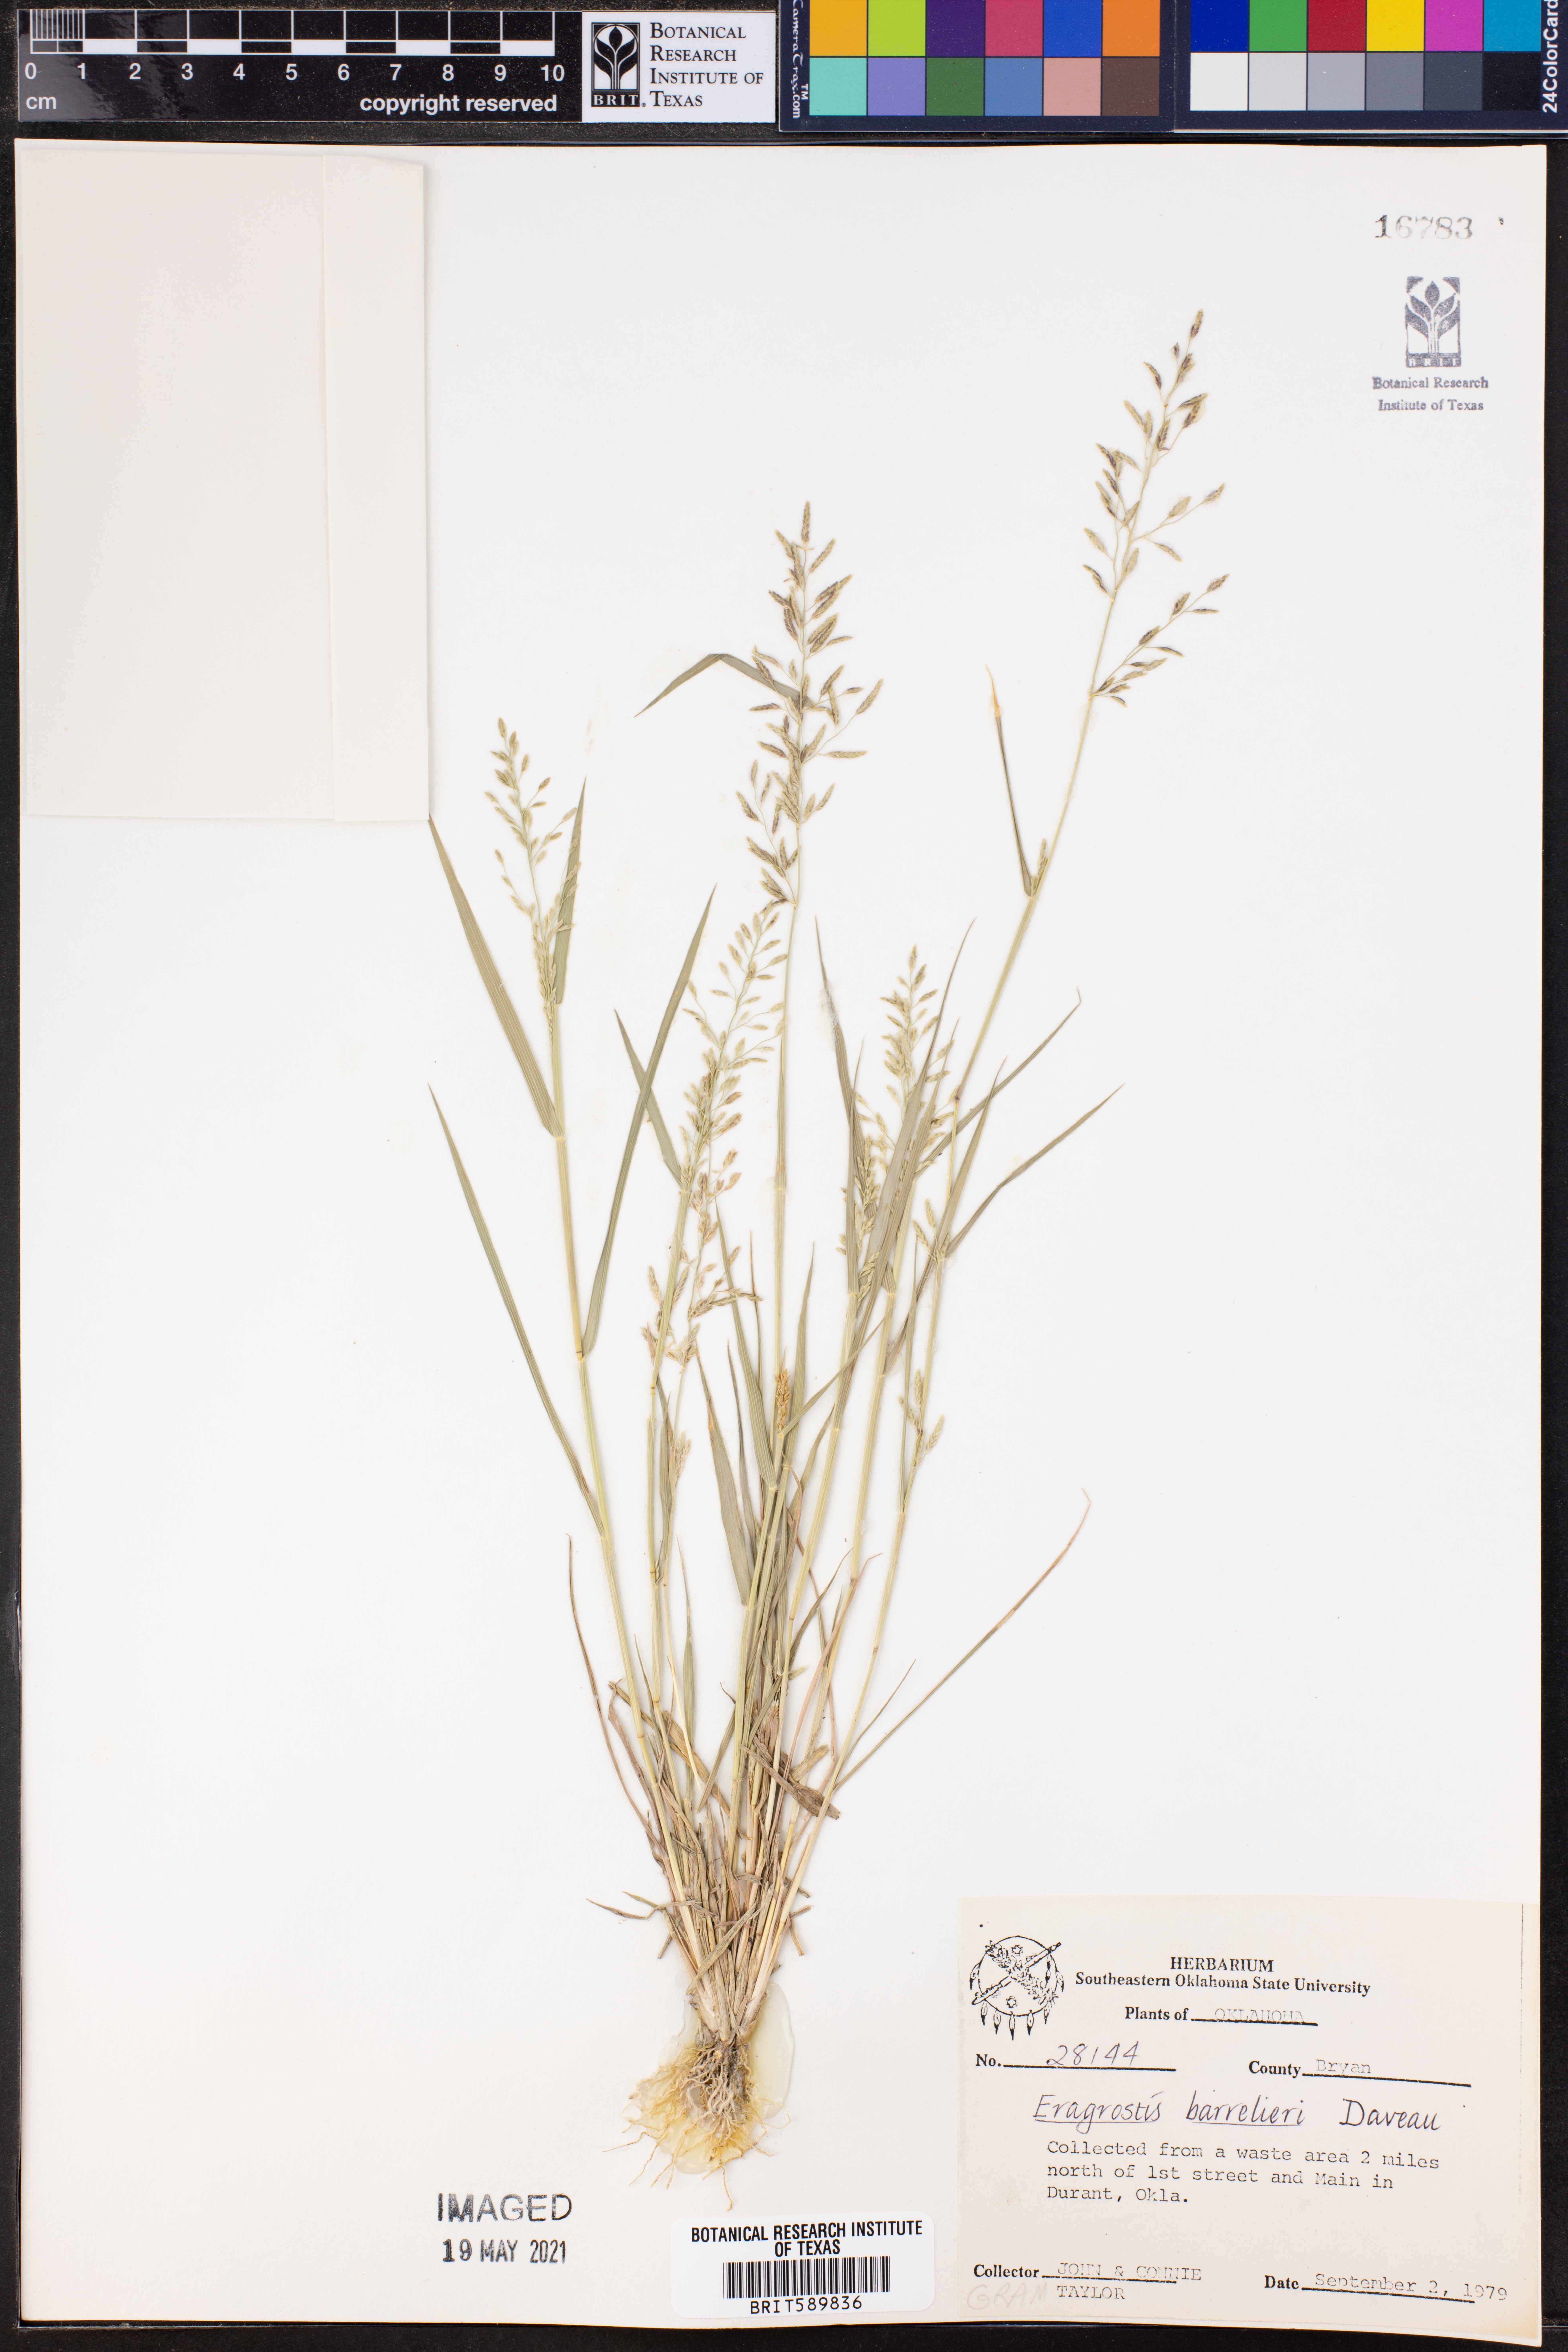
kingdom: Plantae
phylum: Tracheophyta
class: Liliopsida
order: Poales
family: Poaceae
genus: Eragrostis
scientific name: Eragrostis barrelieri
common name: Mediterranean lovegrass
